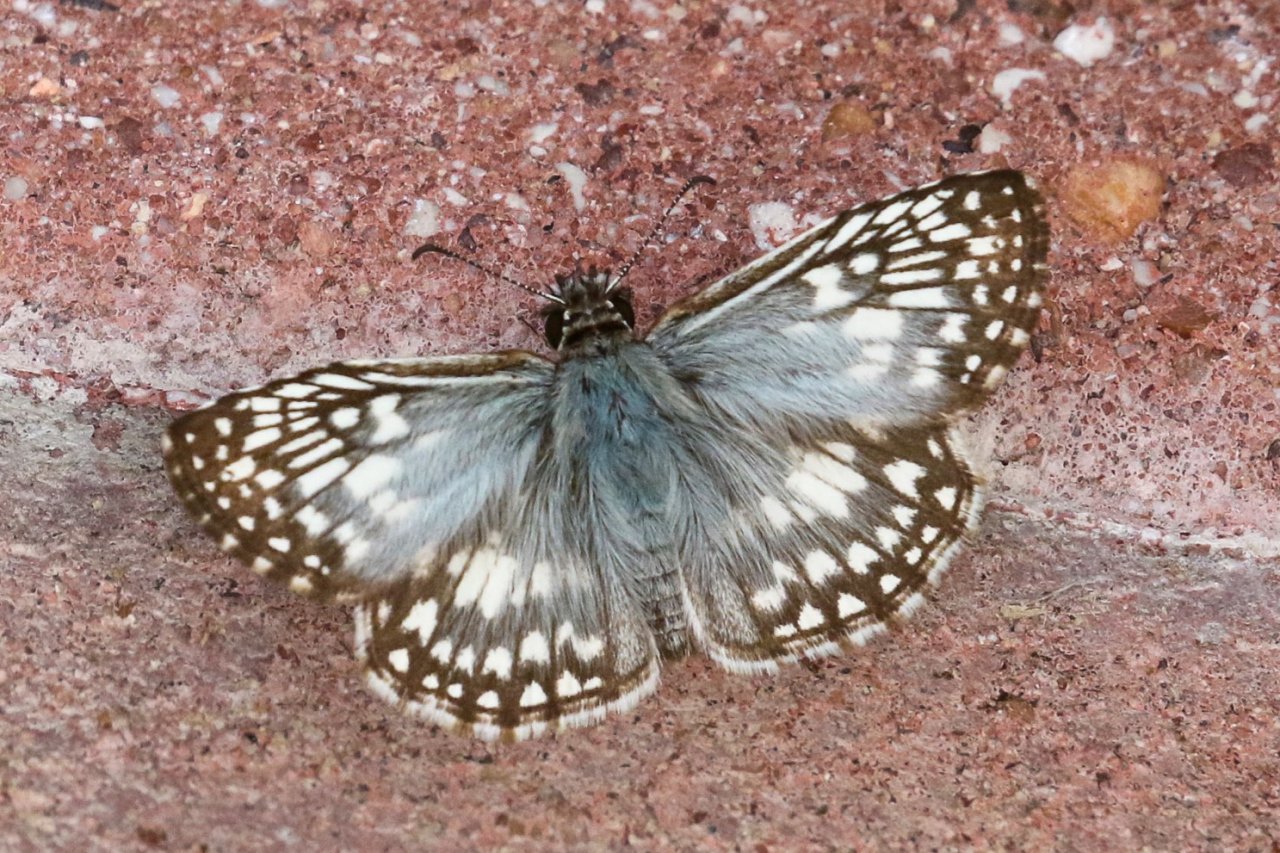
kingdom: Animalia
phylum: Arthropoda
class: Insecta
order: Lepidoptera
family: Hesperiidae
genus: Pyrgus
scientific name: Pyrgus oileus
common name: Tropical Checkered-Skipper
